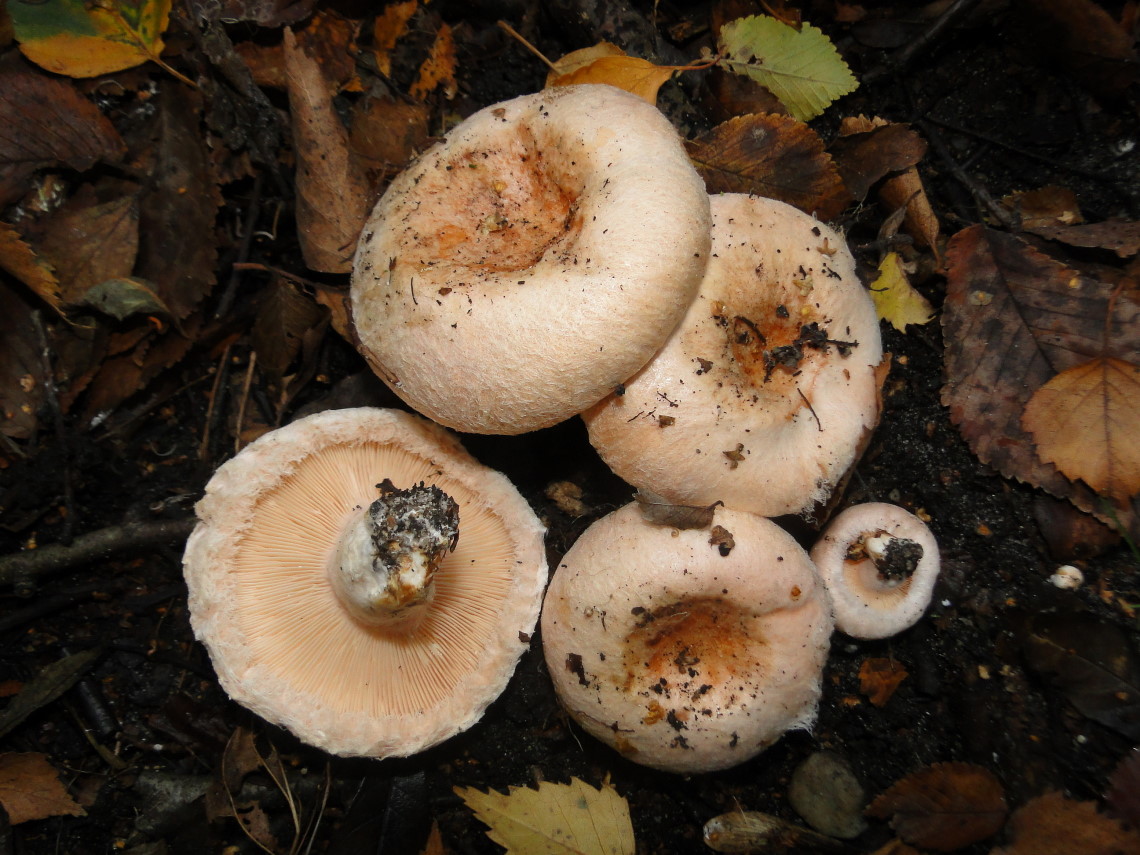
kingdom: Fungi
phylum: Basidiomycota
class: Agaricomycetes
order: Russulales
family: Russulaceae
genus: Lactarius
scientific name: Lactarius torminosus
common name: skægget mælkehat
